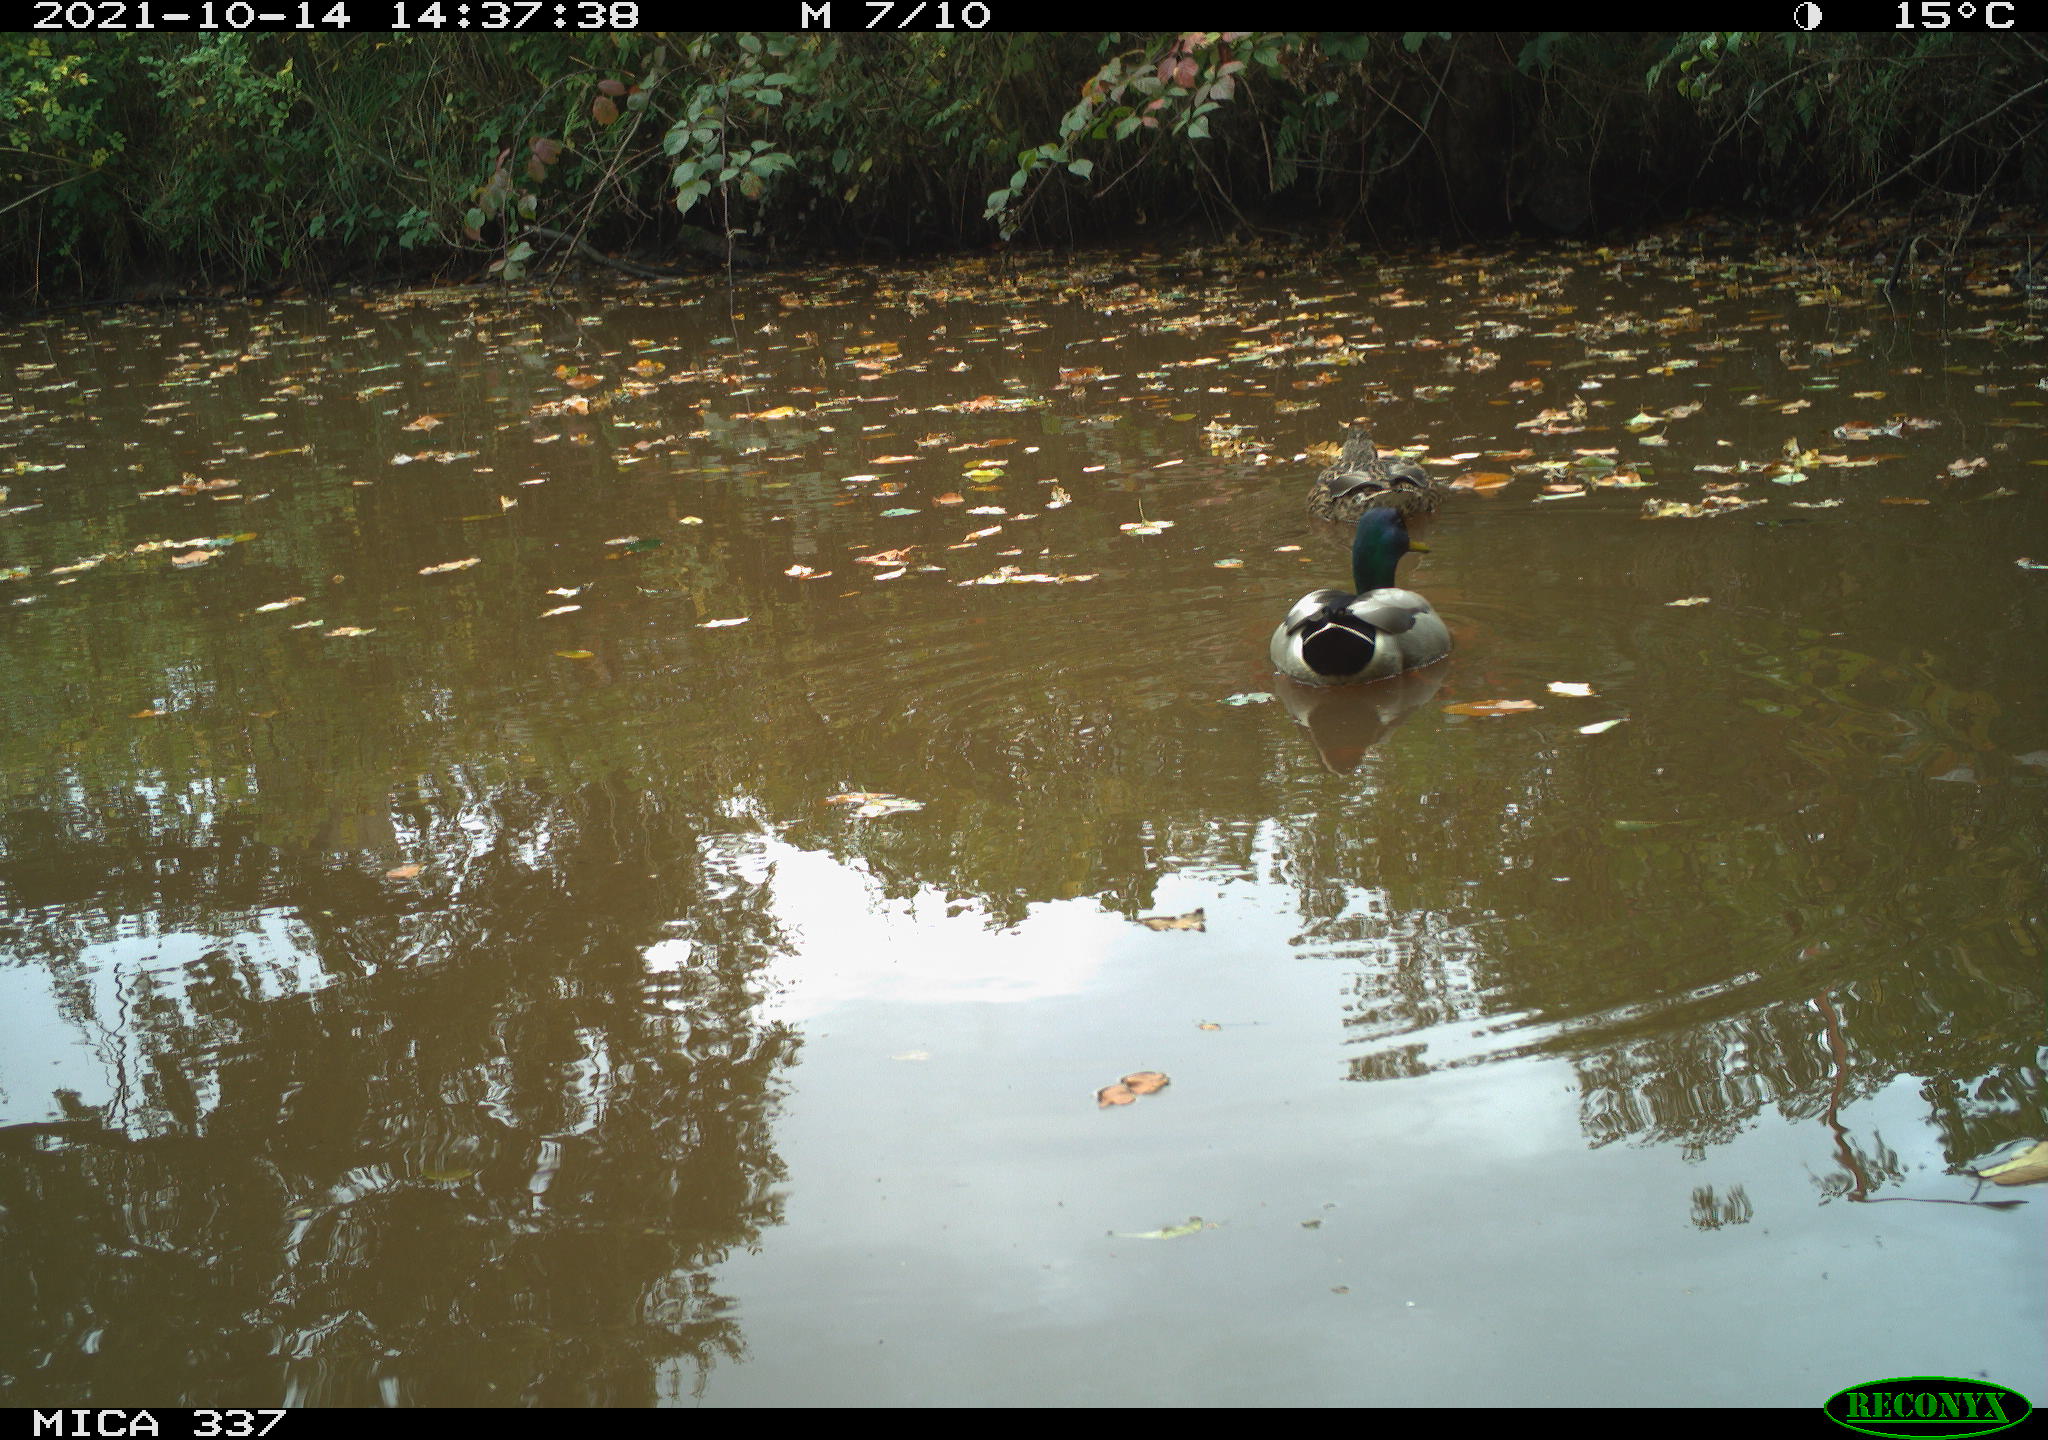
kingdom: Animalia
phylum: Chordata
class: Aves
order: Anseriformes
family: Anatidae
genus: Anas
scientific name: Anas platyrhynchos
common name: Mallard
